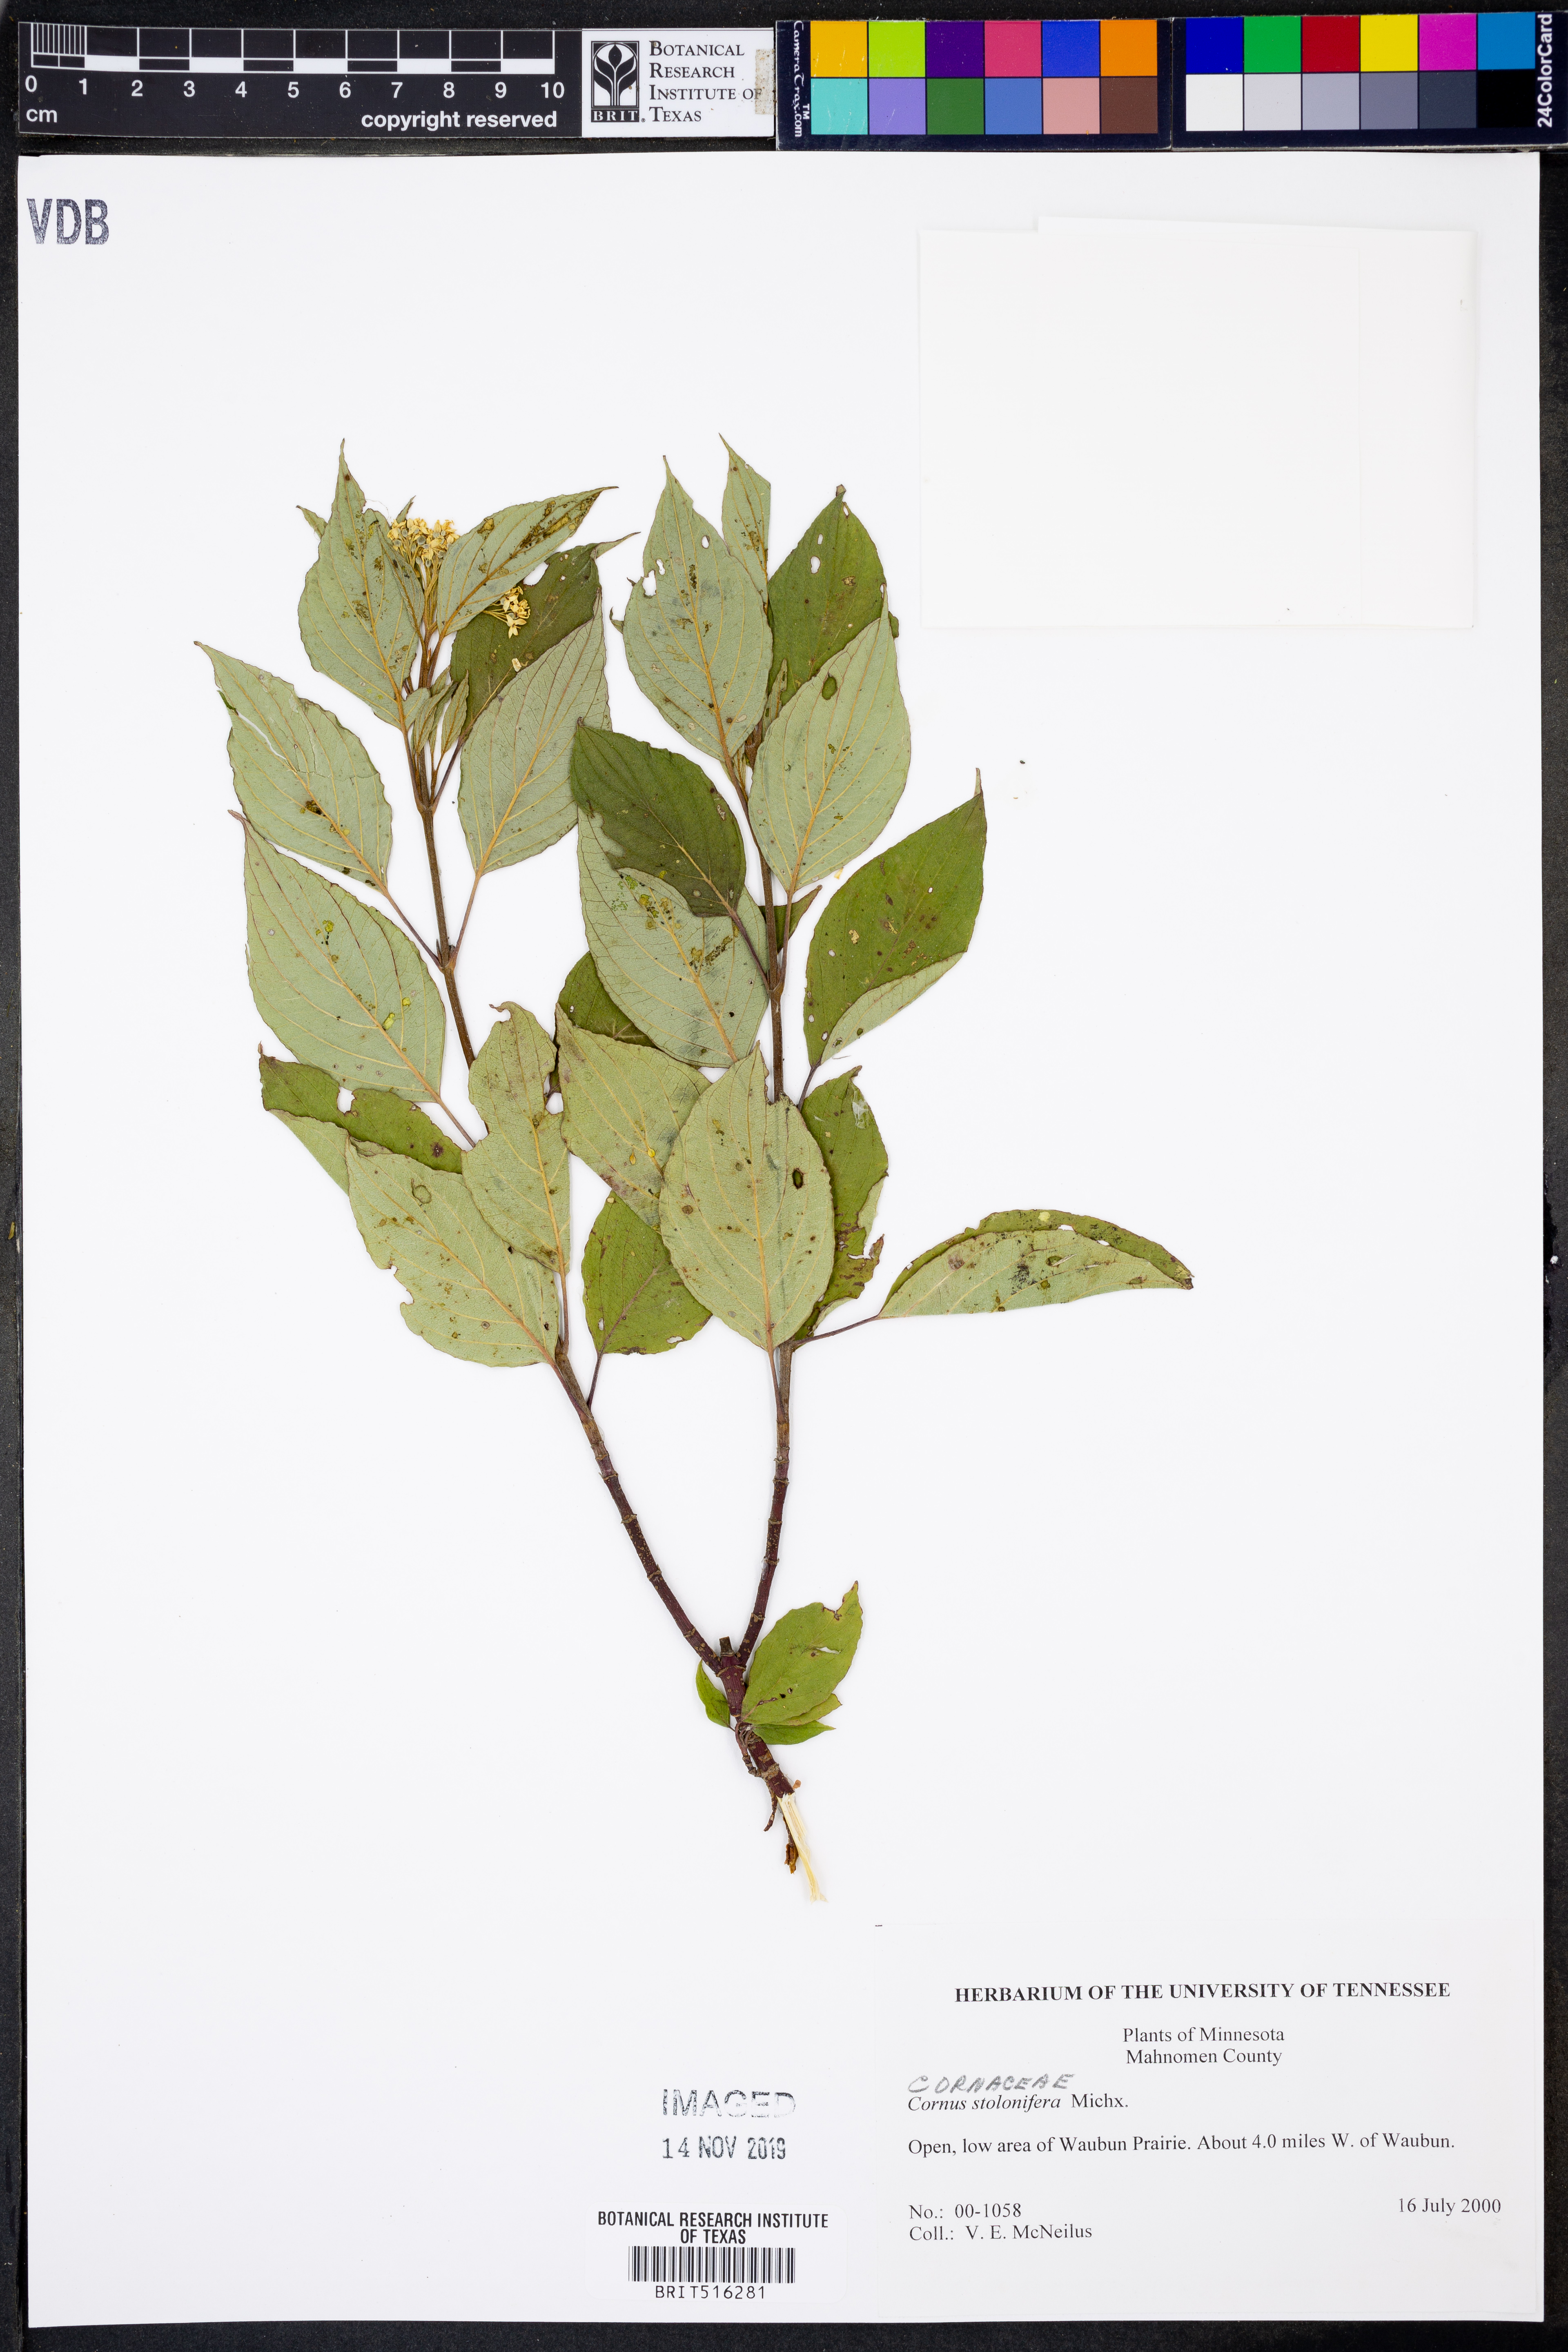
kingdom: Plantae
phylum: Tracheophyta
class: Magnoliopsida
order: Cornales
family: Cornaceae
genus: Cornus
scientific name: Cornus sericea
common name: Red-osier dogwood
